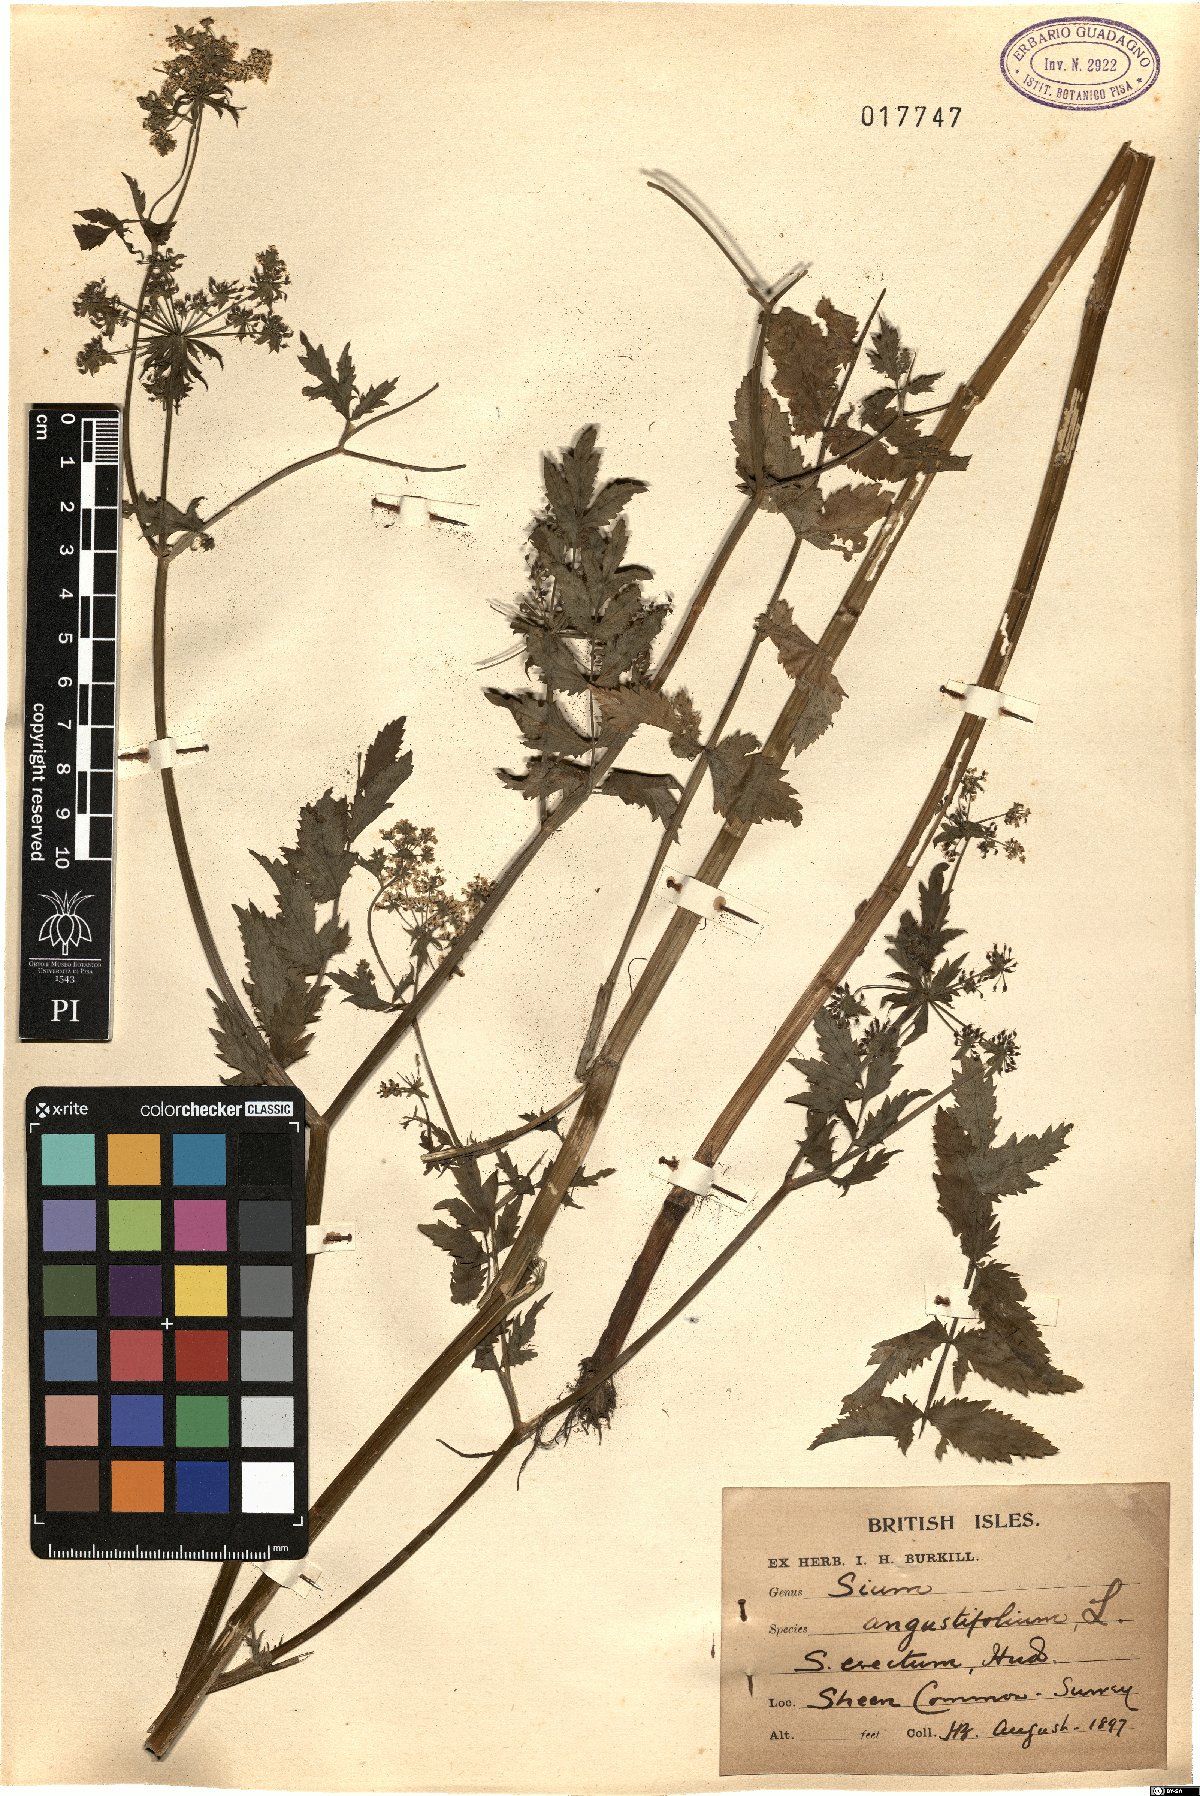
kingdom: Plantae
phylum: Tracheophyta
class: Magnoliopsida
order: Apiales
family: Apiaceae
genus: Berula
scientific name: Berula erecta
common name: Lesser water-parsnip
